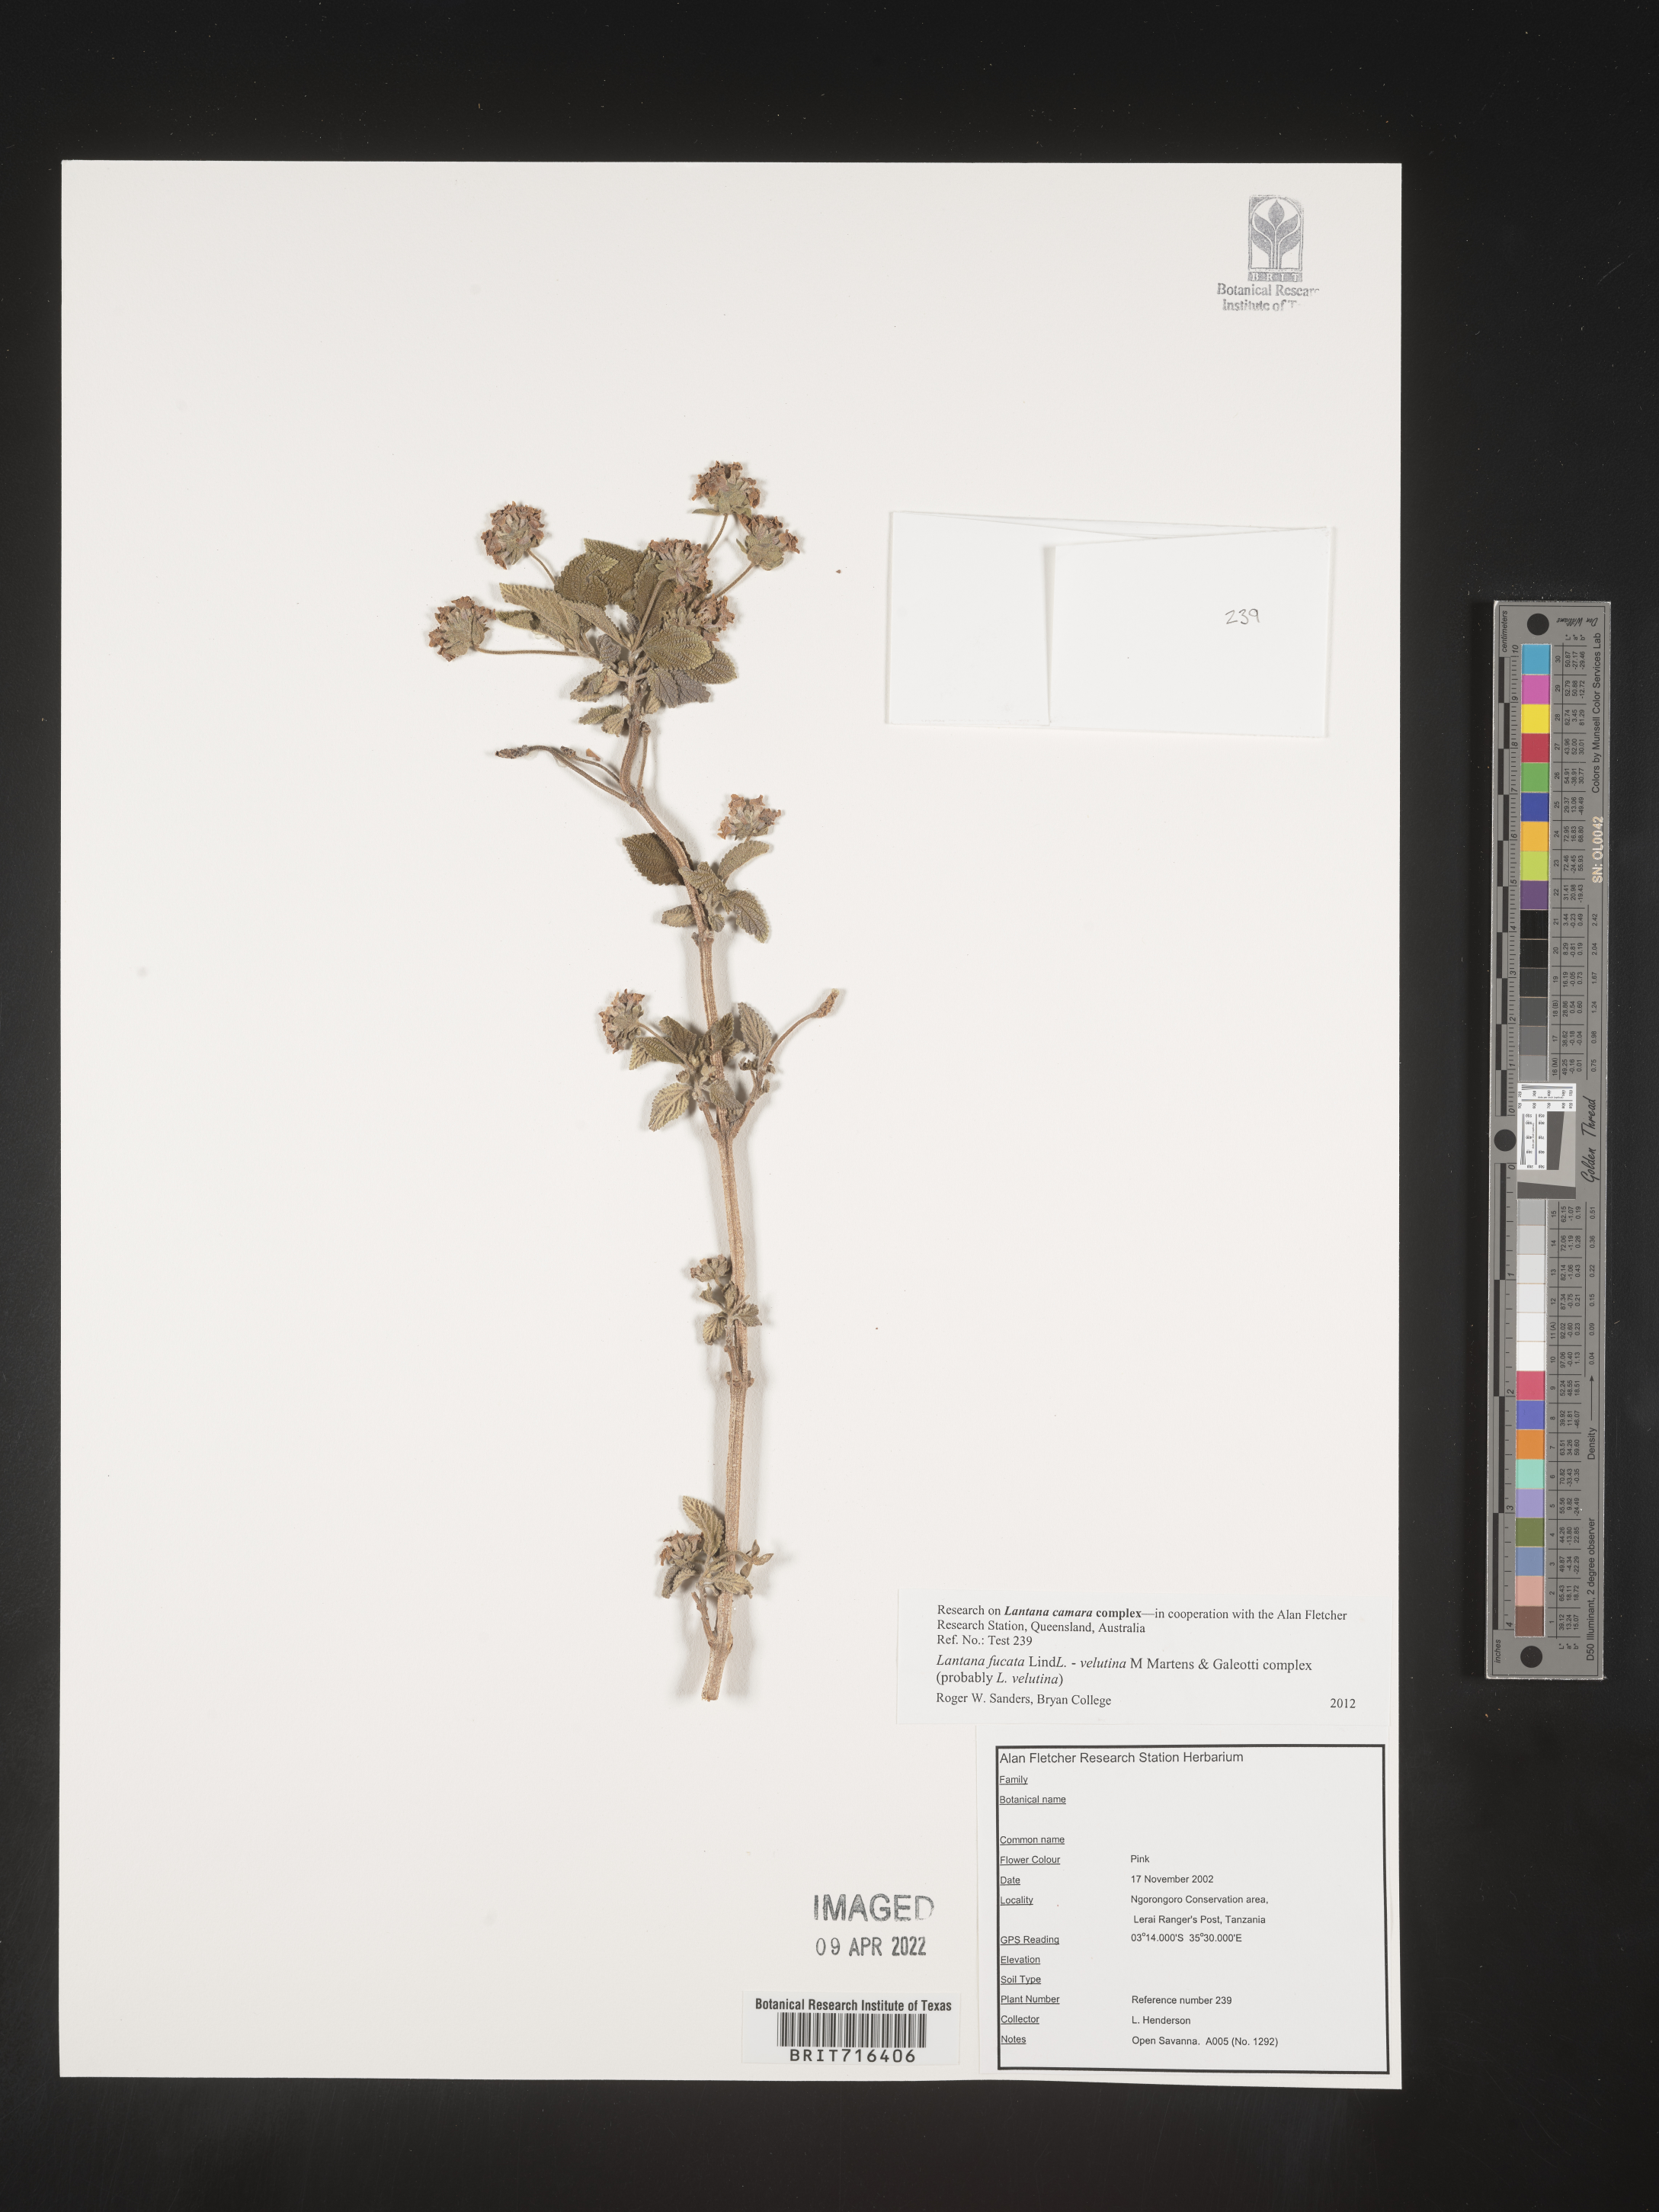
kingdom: Plantae
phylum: Tracheophyta
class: Magnoliopsida
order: Lamiales
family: Verbenaceae
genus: Lantana
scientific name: Lantana
